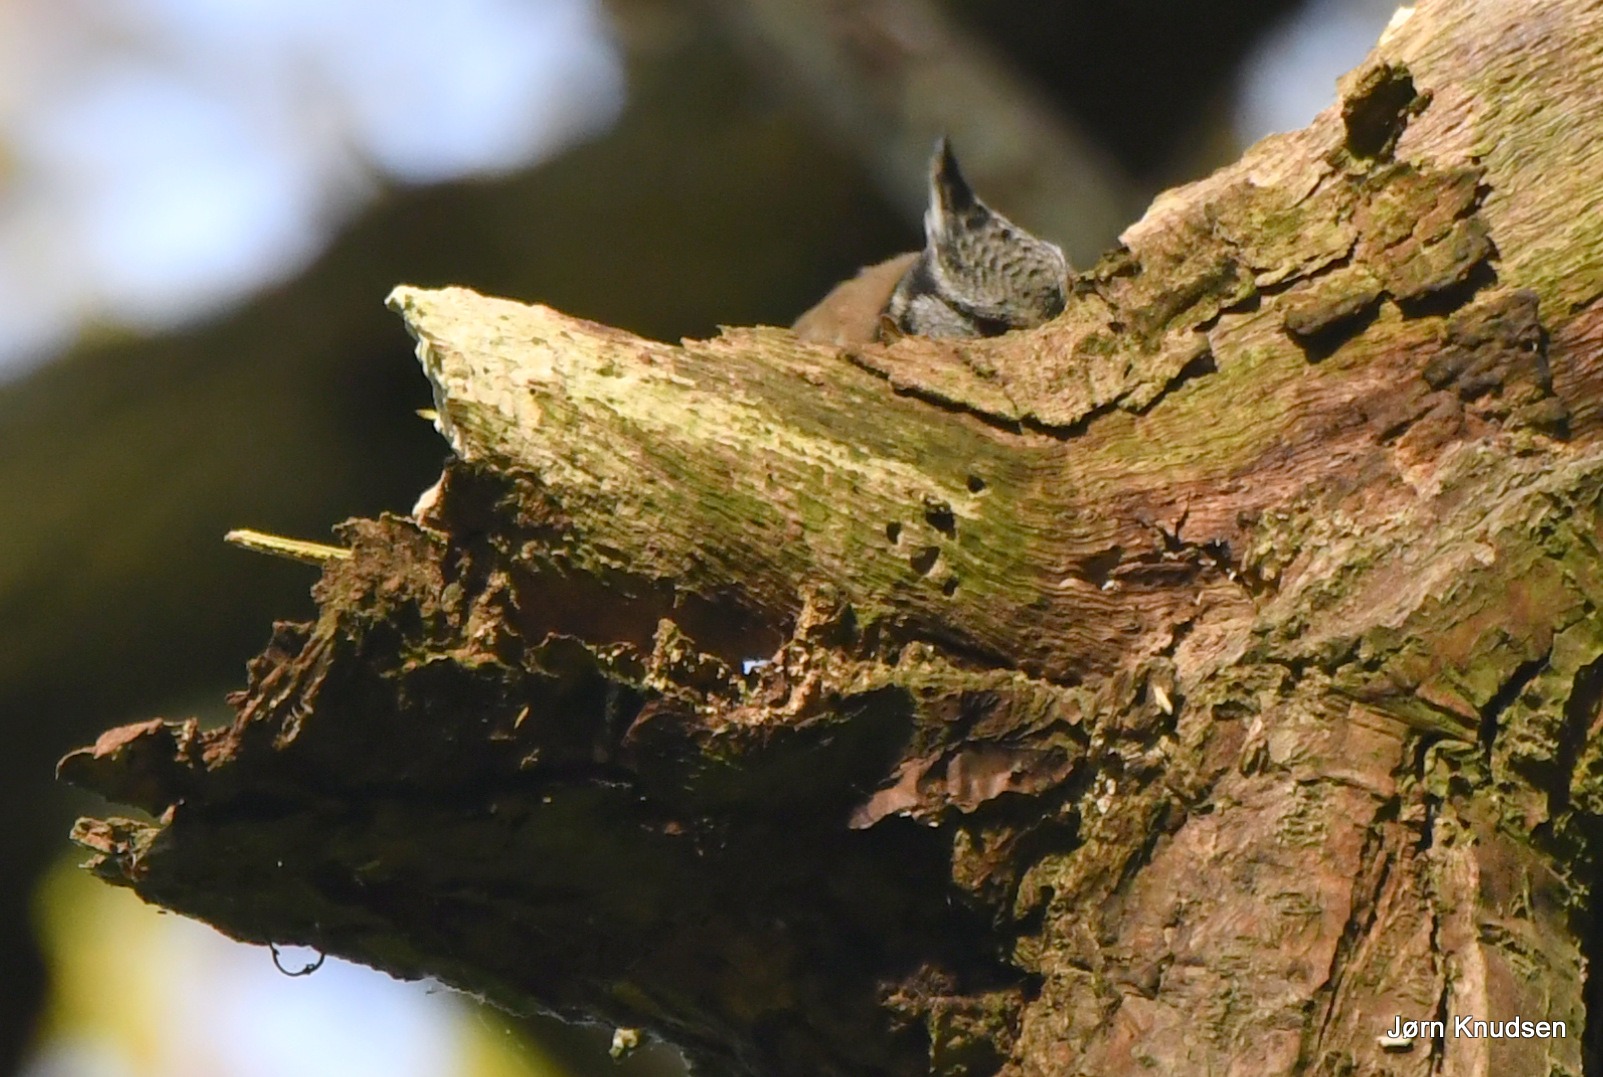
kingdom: Animalia
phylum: Chordata
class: Aves
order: Passeriformes
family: Paridae
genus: Lophophanes
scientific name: Lophophanes cristatus
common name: Topmejse
